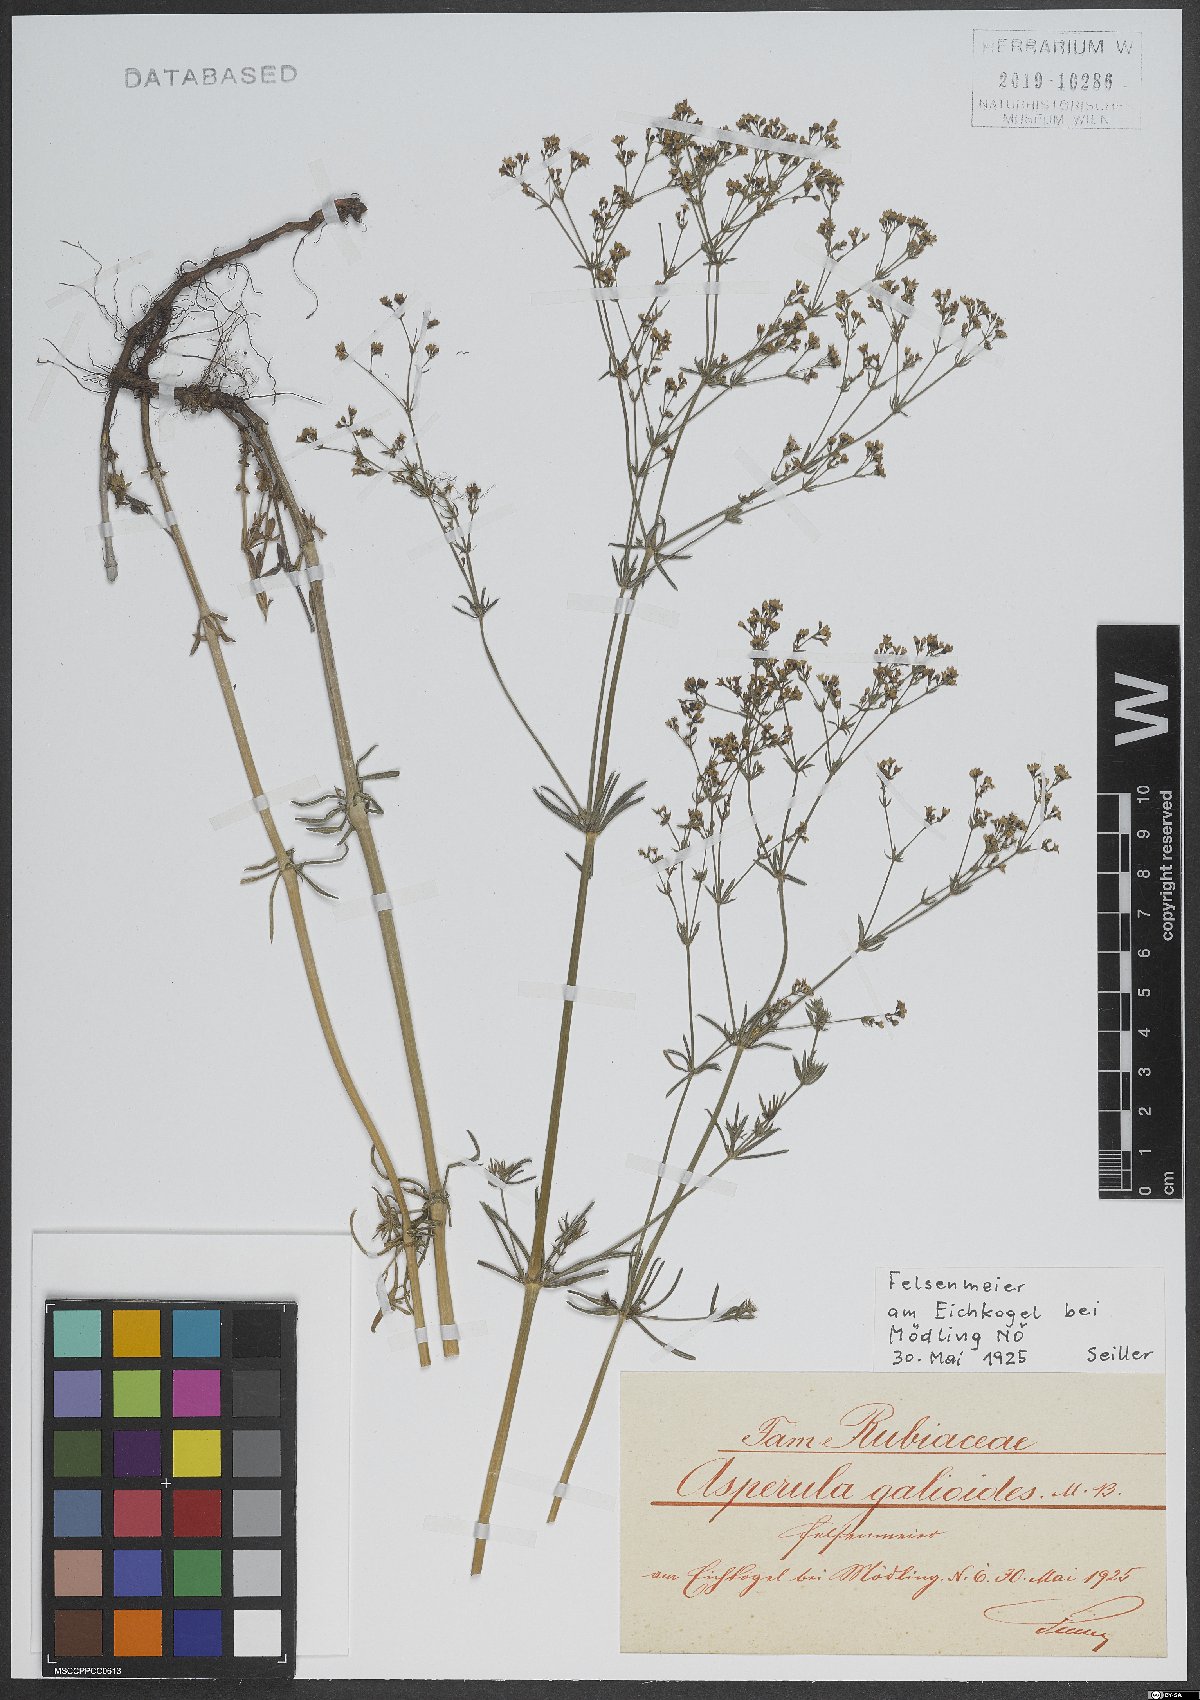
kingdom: Plantae
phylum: Tracheophyta
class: Magnoliopsida
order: Gentianales
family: Rubiaceae
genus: Galium
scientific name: Galium glaucum
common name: Waxy bedstraw
